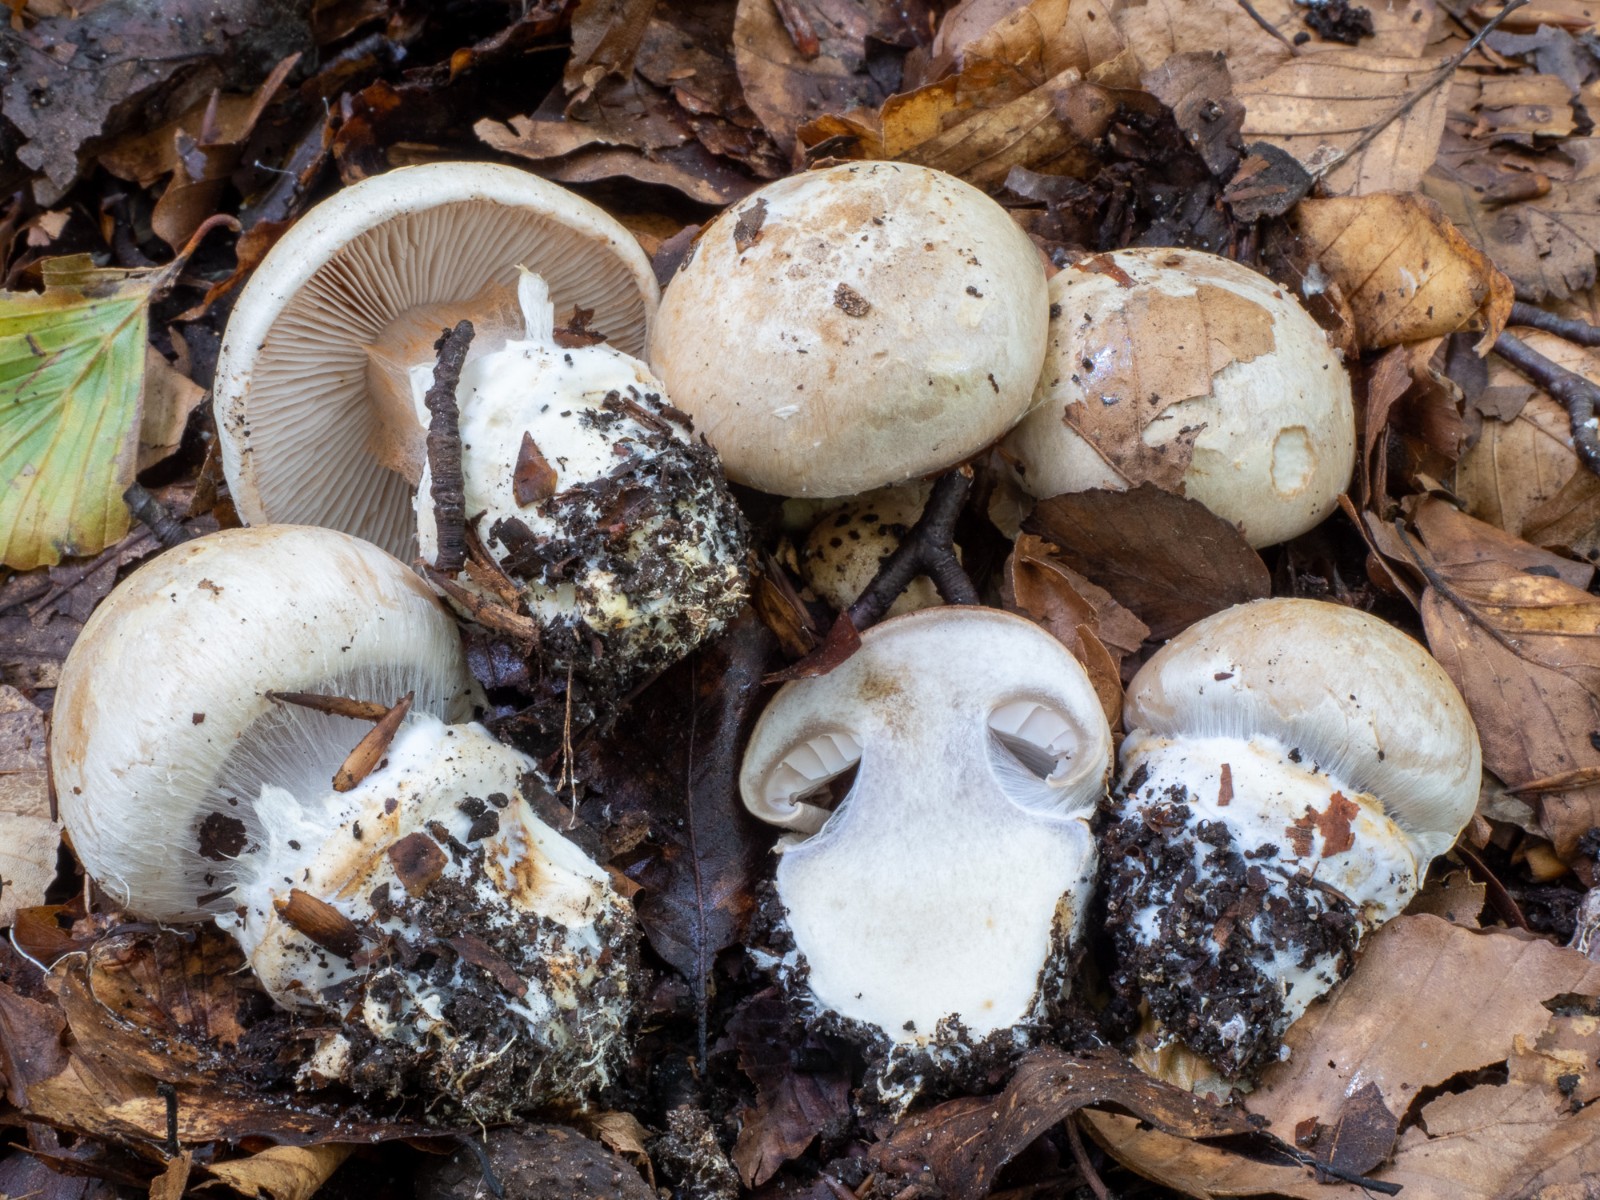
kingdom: Fungi
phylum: Basidiomycota
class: Agaricomycetes
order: Agaricales
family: Cortinariaceae
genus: Cortinarius
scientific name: Cortinarius foetens
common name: stribet slørhat
